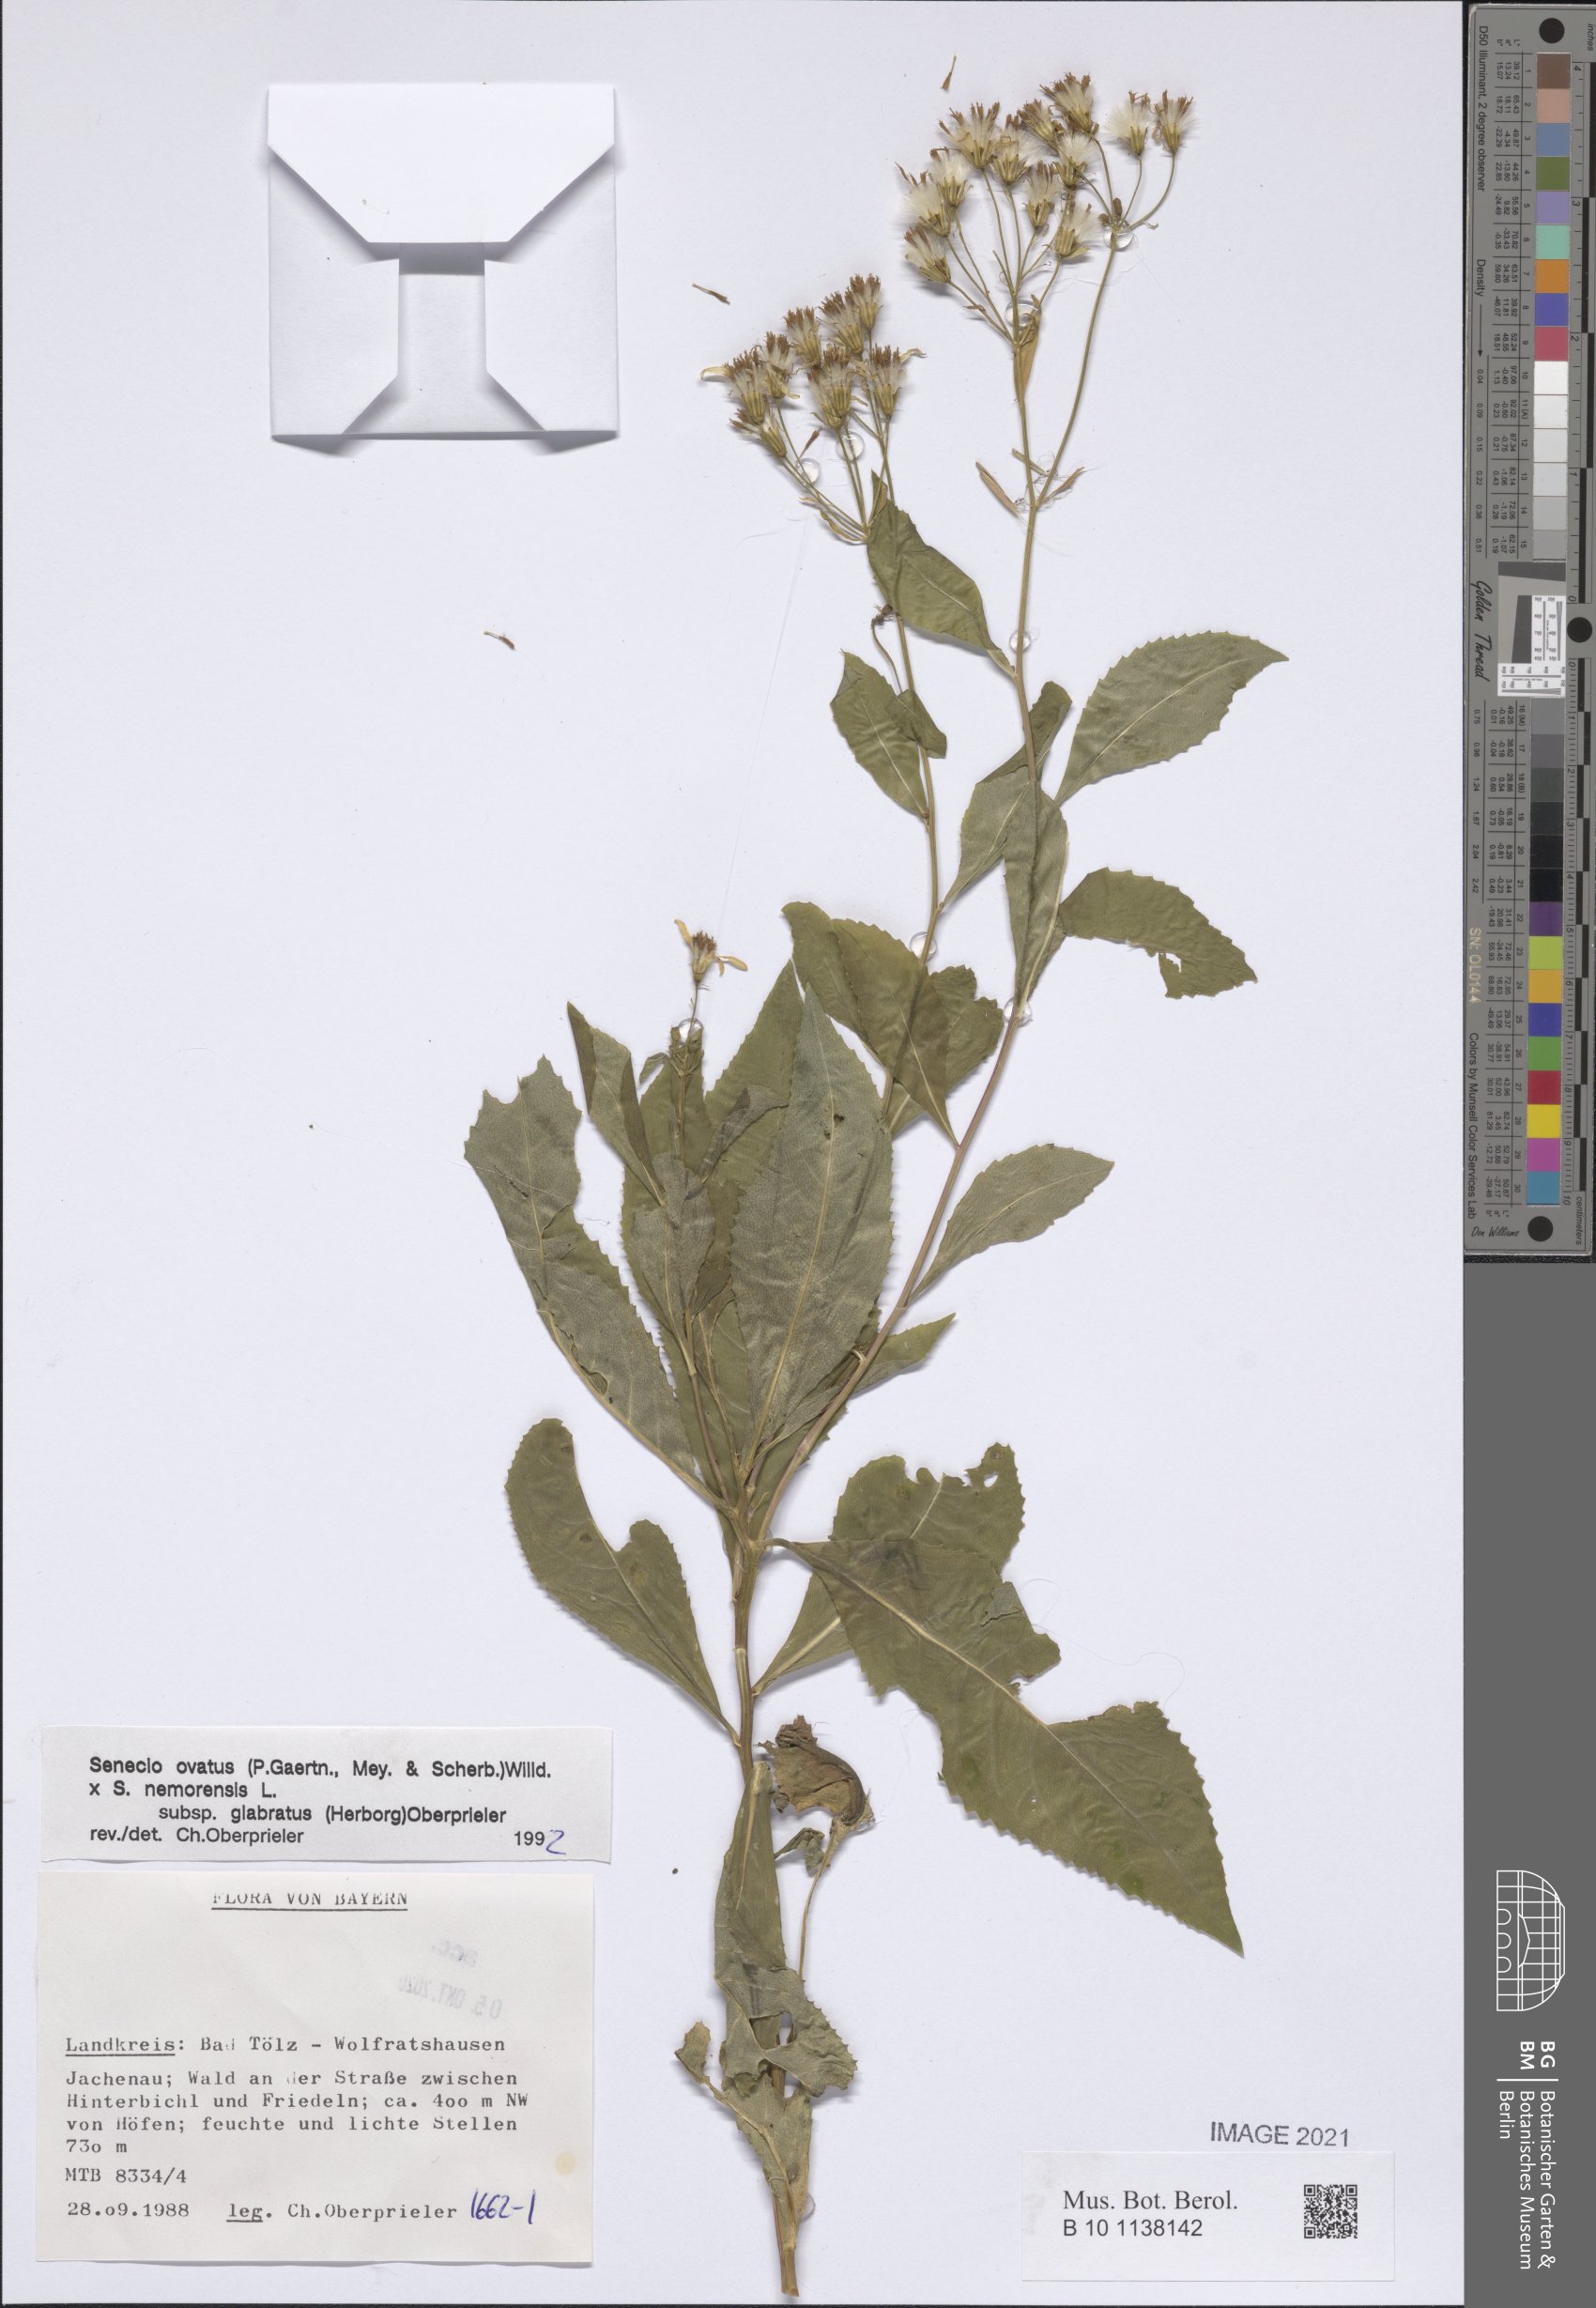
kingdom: Plantae
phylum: Tracheophyta
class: Magnoliopsida
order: Asterales
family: Asteraceae
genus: Senecio
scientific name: Senecio ovatus
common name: Wood ragwort
